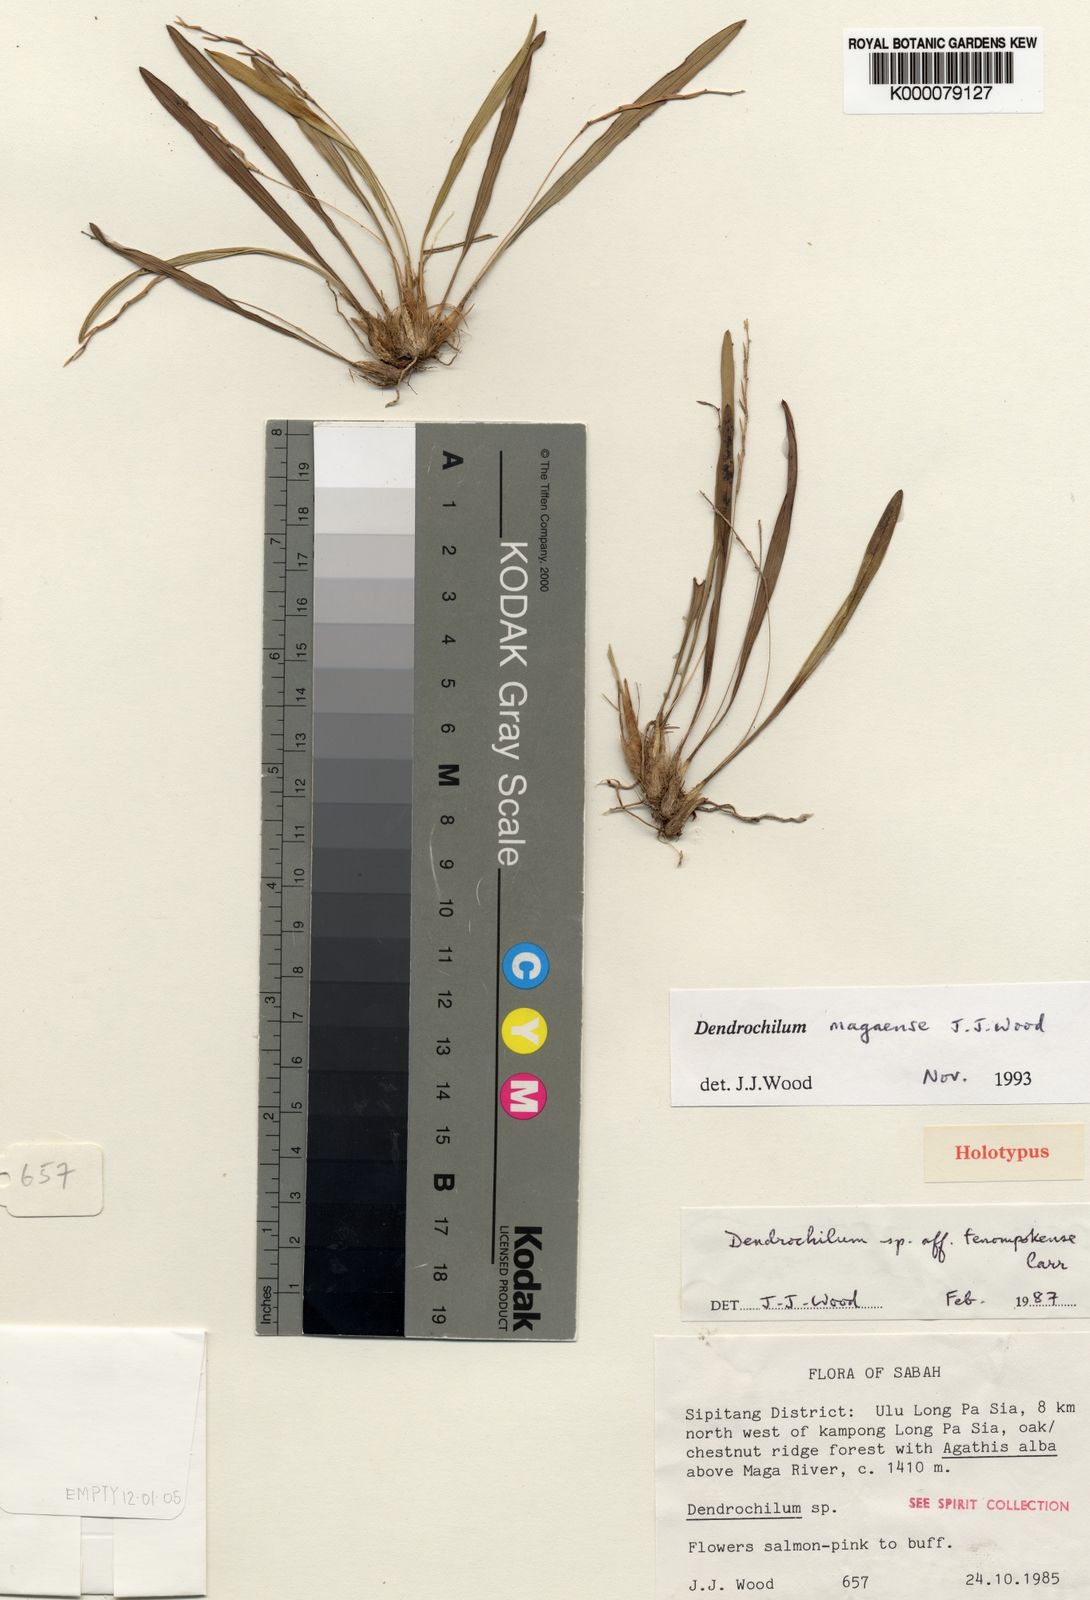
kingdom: Plantae
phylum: Tracheophyta
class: Liliopsida
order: Asparagales
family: Orchidaceae
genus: Coelogyne
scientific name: Coelogyne magaensis
